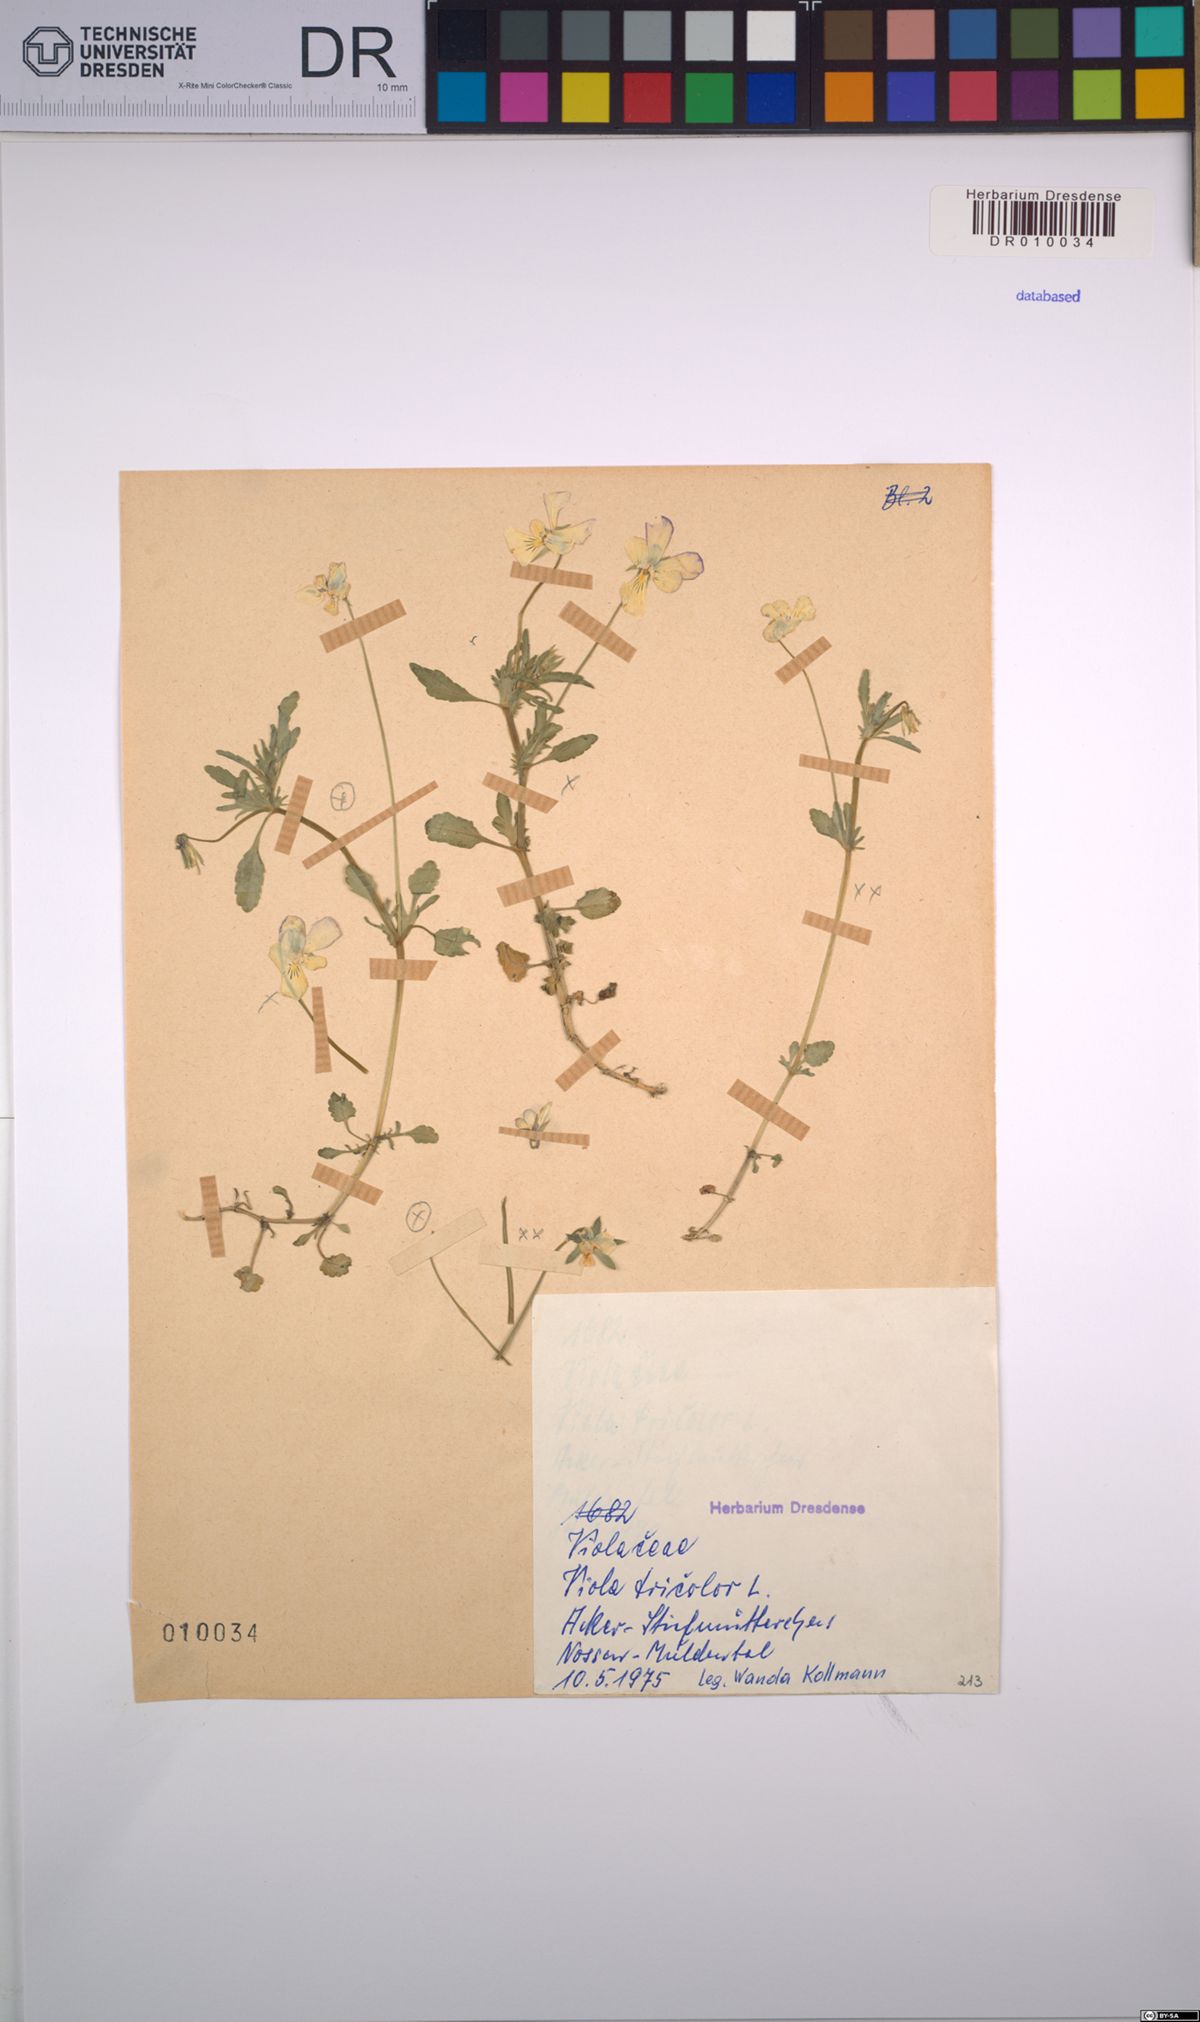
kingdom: Plantae
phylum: Tracheophyta
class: Magnoliopsida
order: Malpighiales
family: Violaceae
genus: Viola
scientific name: Viola tricolor
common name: Pansy
